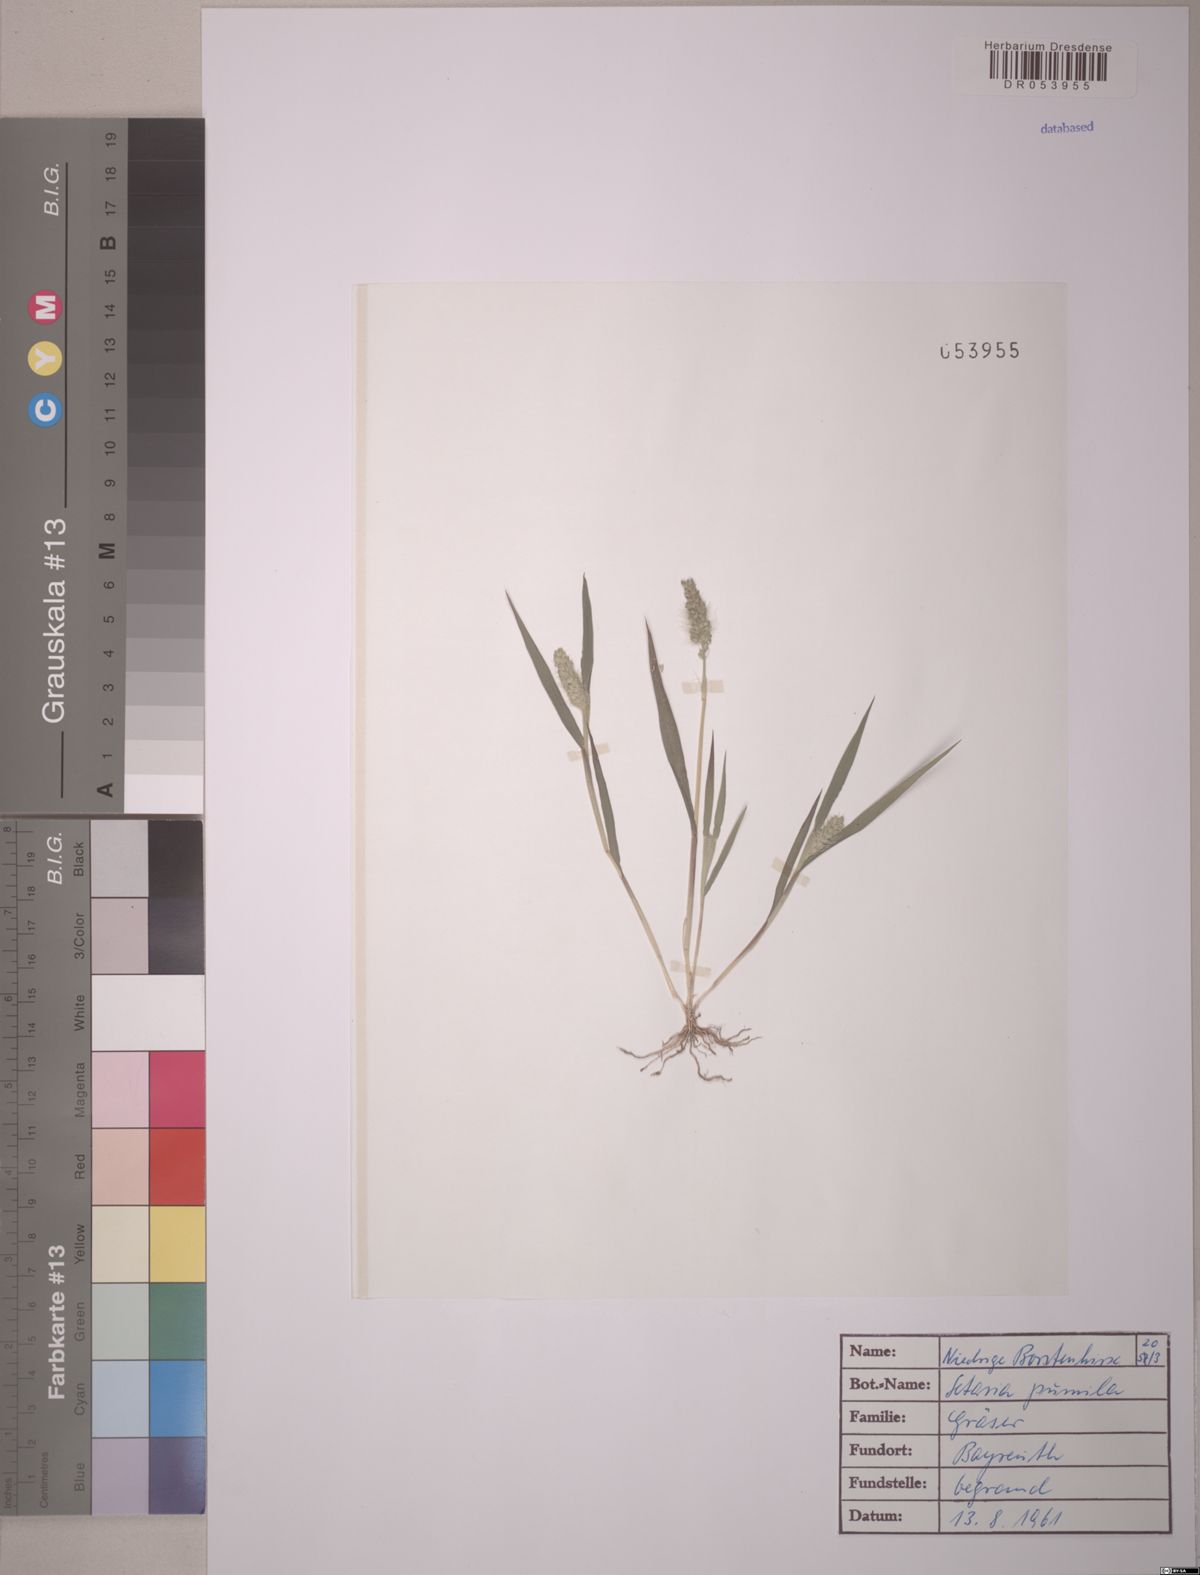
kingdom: Plantae
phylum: Tracheophyta
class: Liliopsida
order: Poales
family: Poaceae
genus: Setaria
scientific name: Setaria pumila
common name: Yellow bristle-grass
